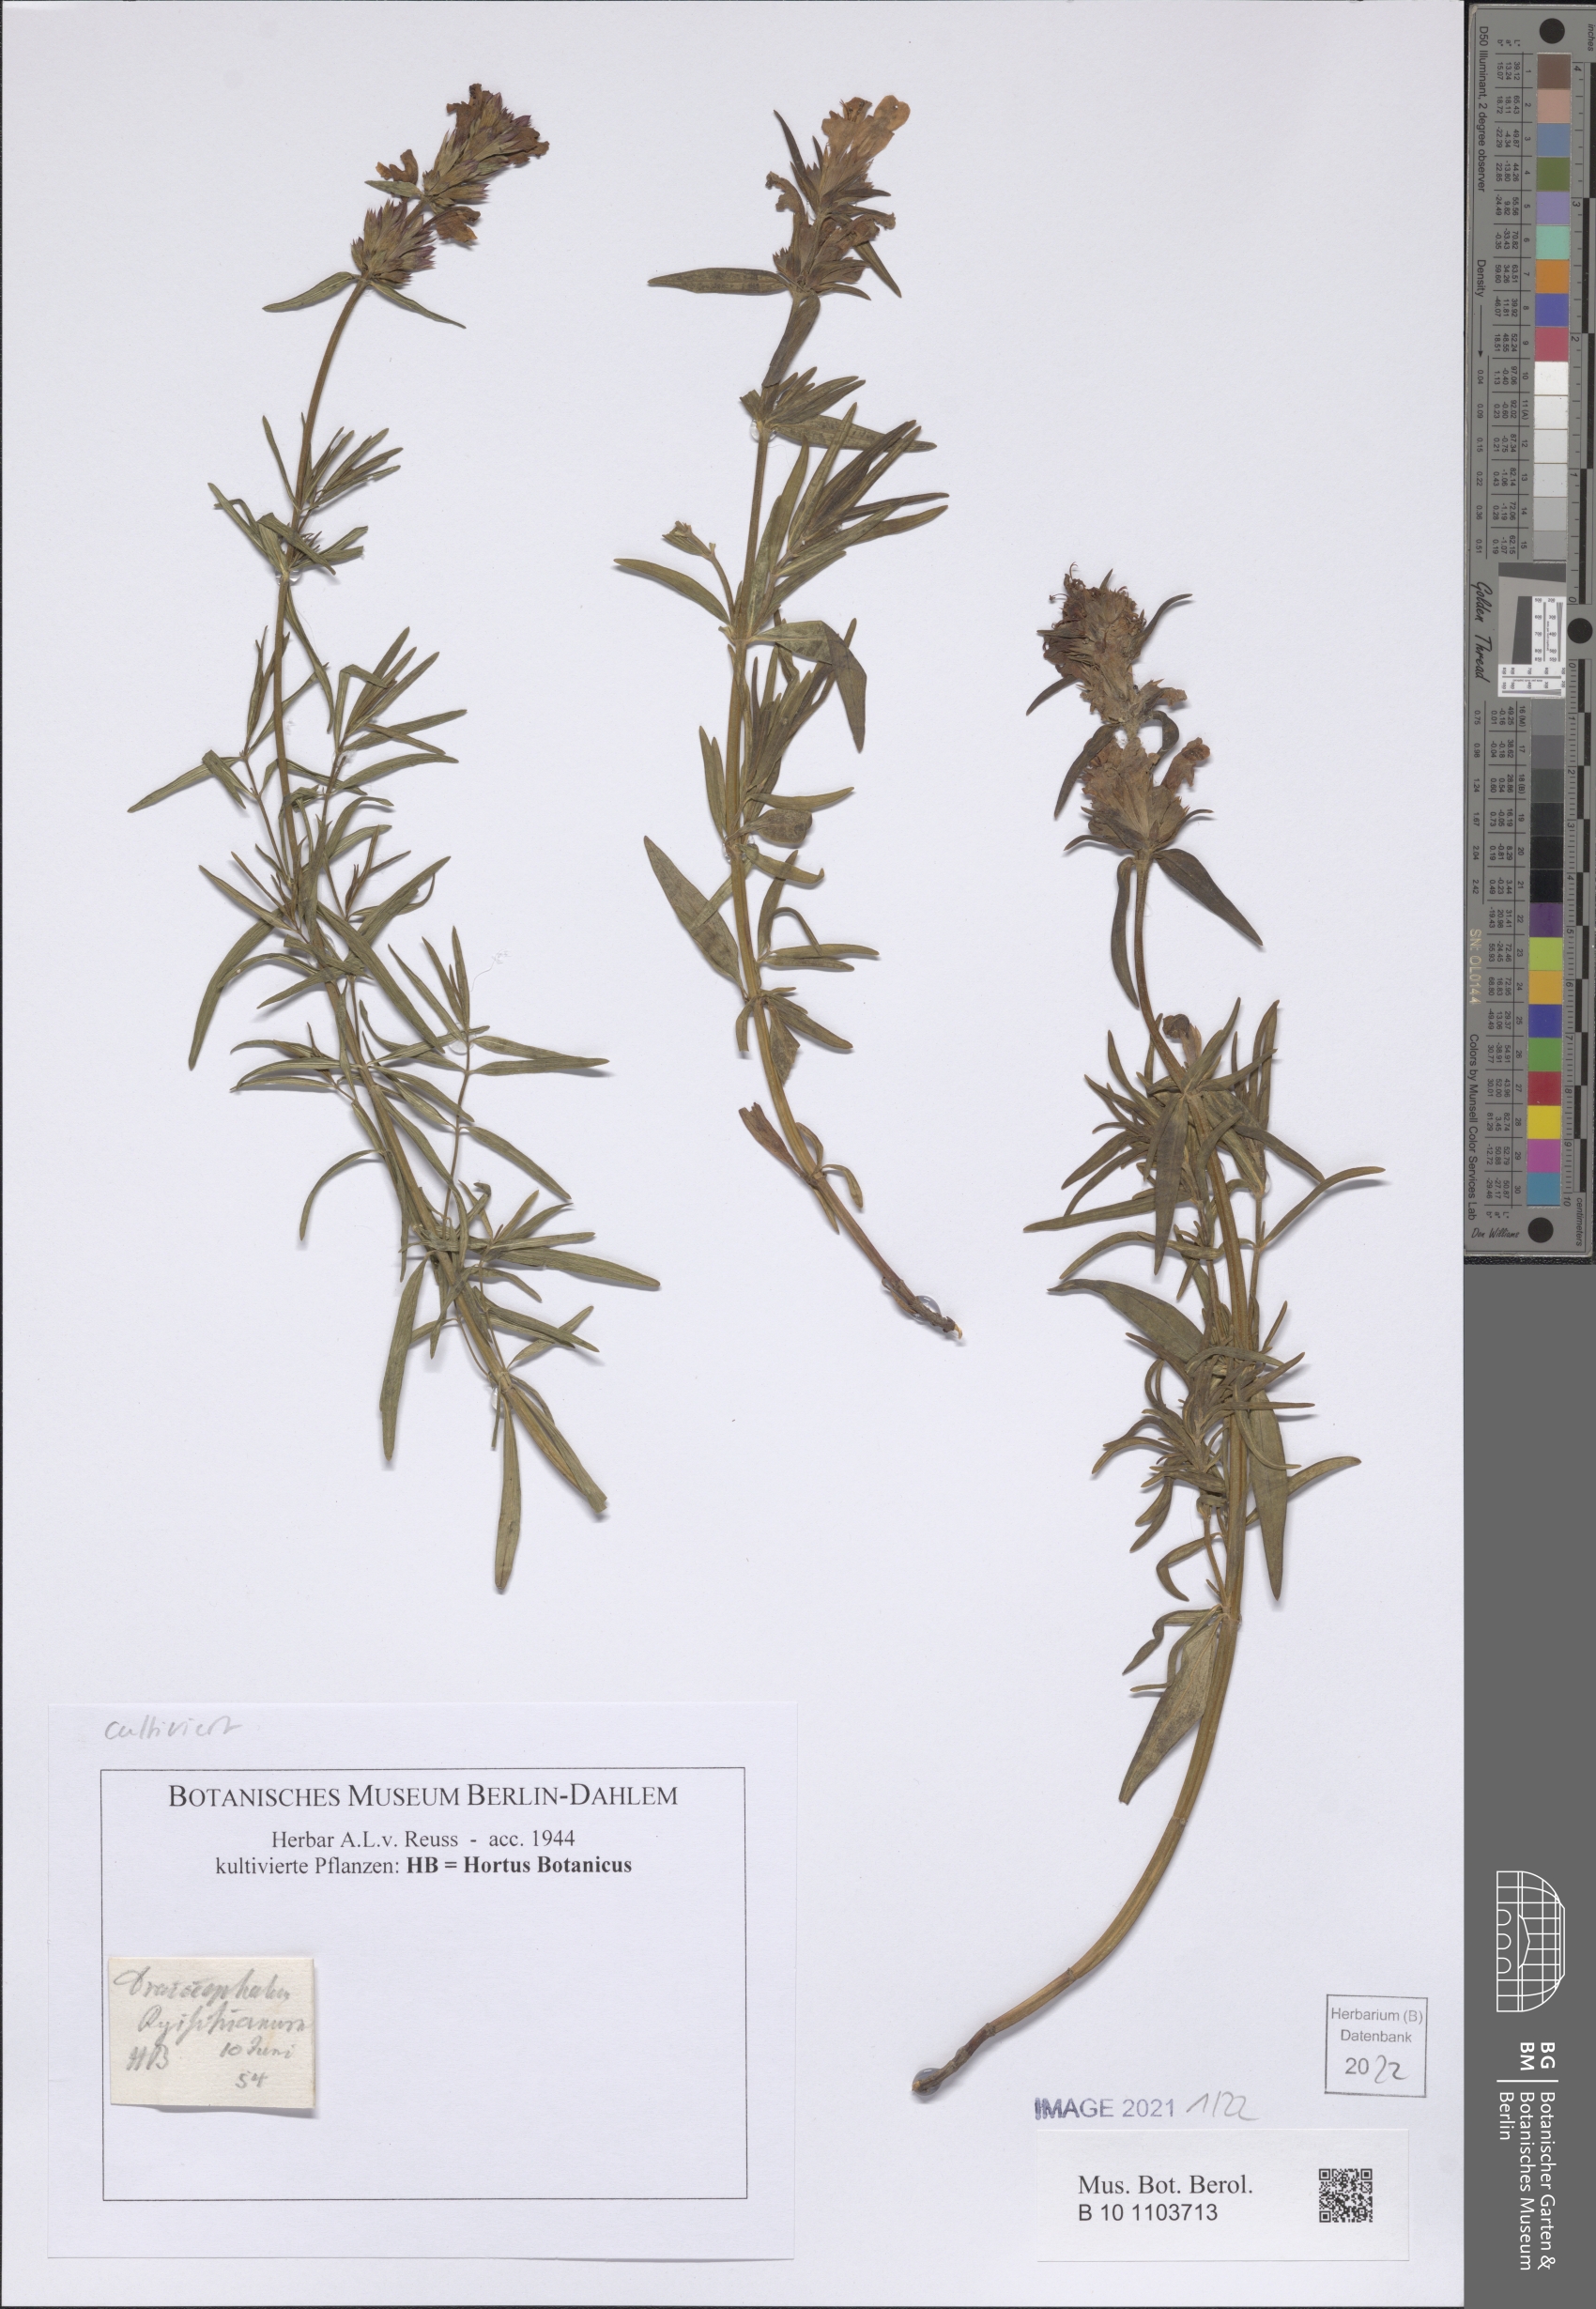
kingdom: Plantae
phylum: Tracheophyta
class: Magnoliopsida
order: Lamiales
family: Lamiaceae
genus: Dracocephalum
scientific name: Dracocephalum ruyschiana
